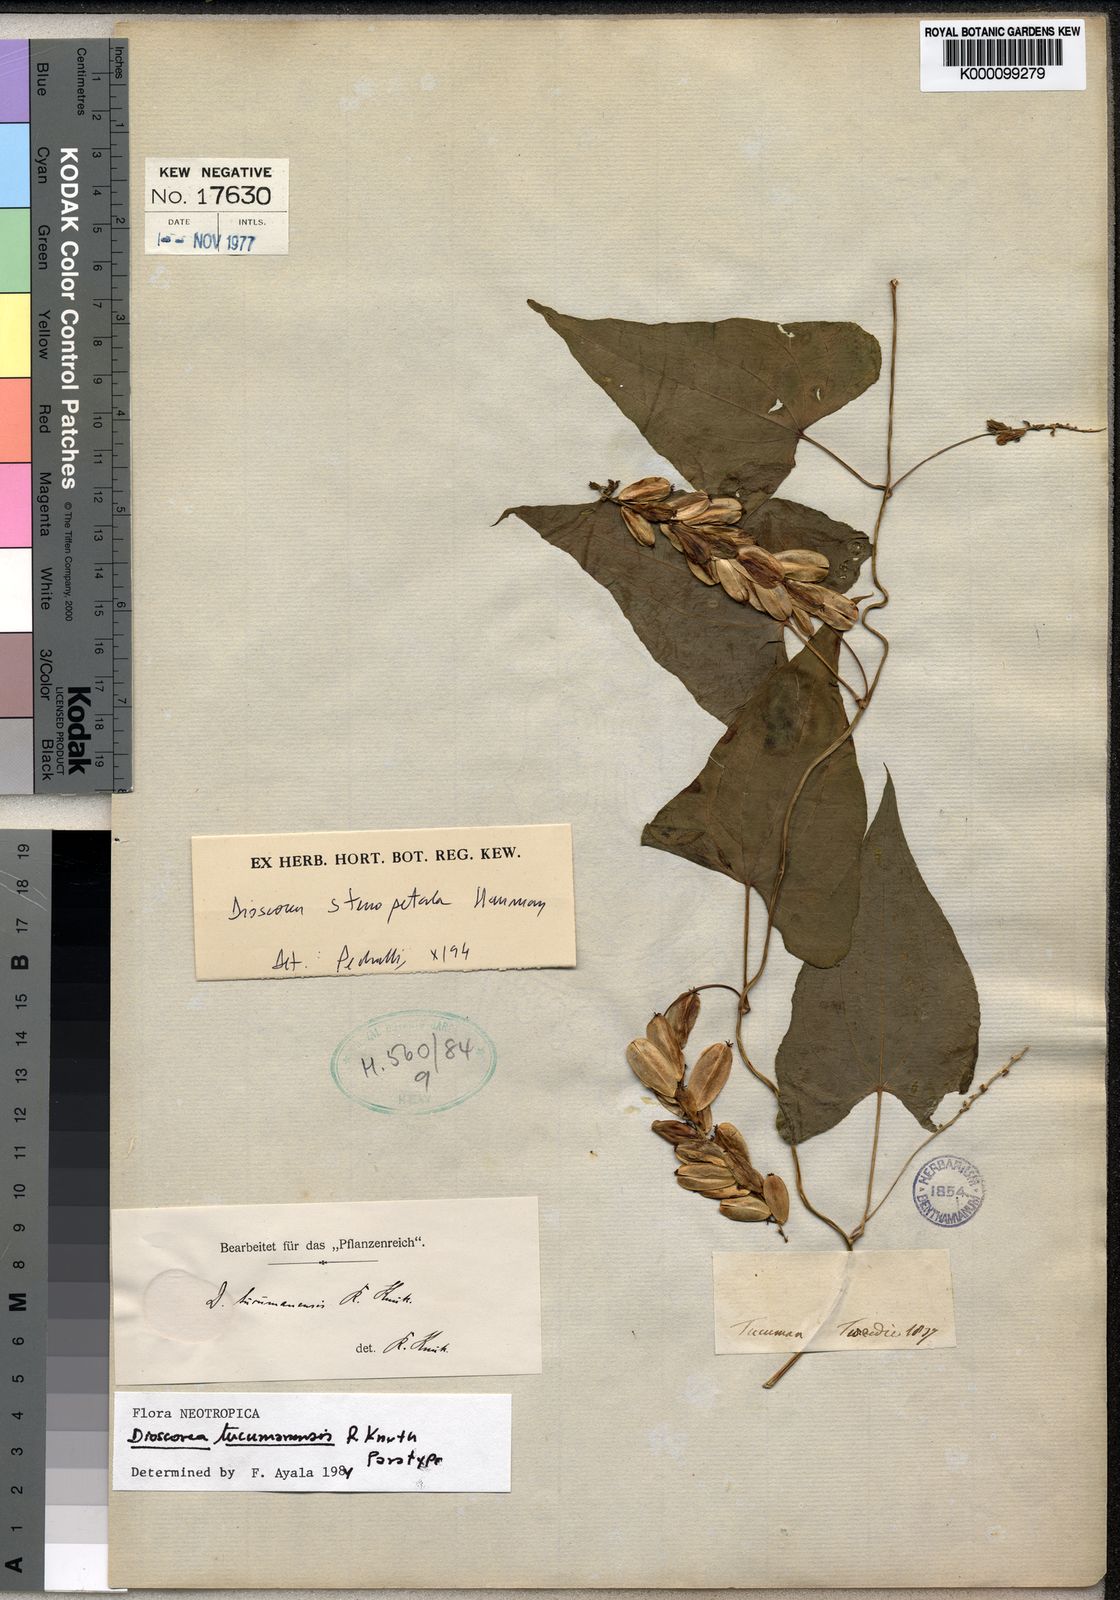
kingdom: Plantae
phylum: Tracheophyta
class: Liliopsida
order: Dioscoreales
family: Dioscoreaceae
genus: Dioscorea
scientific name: Dioscorea stenopetala
